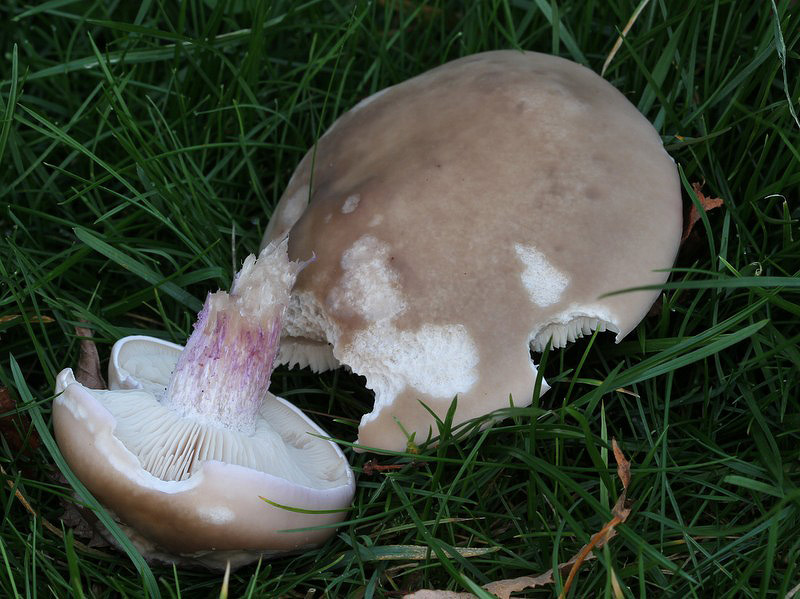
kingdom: Fungi
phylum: Basidiomycota
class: Agaricomycetes
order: Agaricales
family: Tricholomataceae
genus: Lepista
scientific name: Lepista personata
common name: bleg hekseringshat
